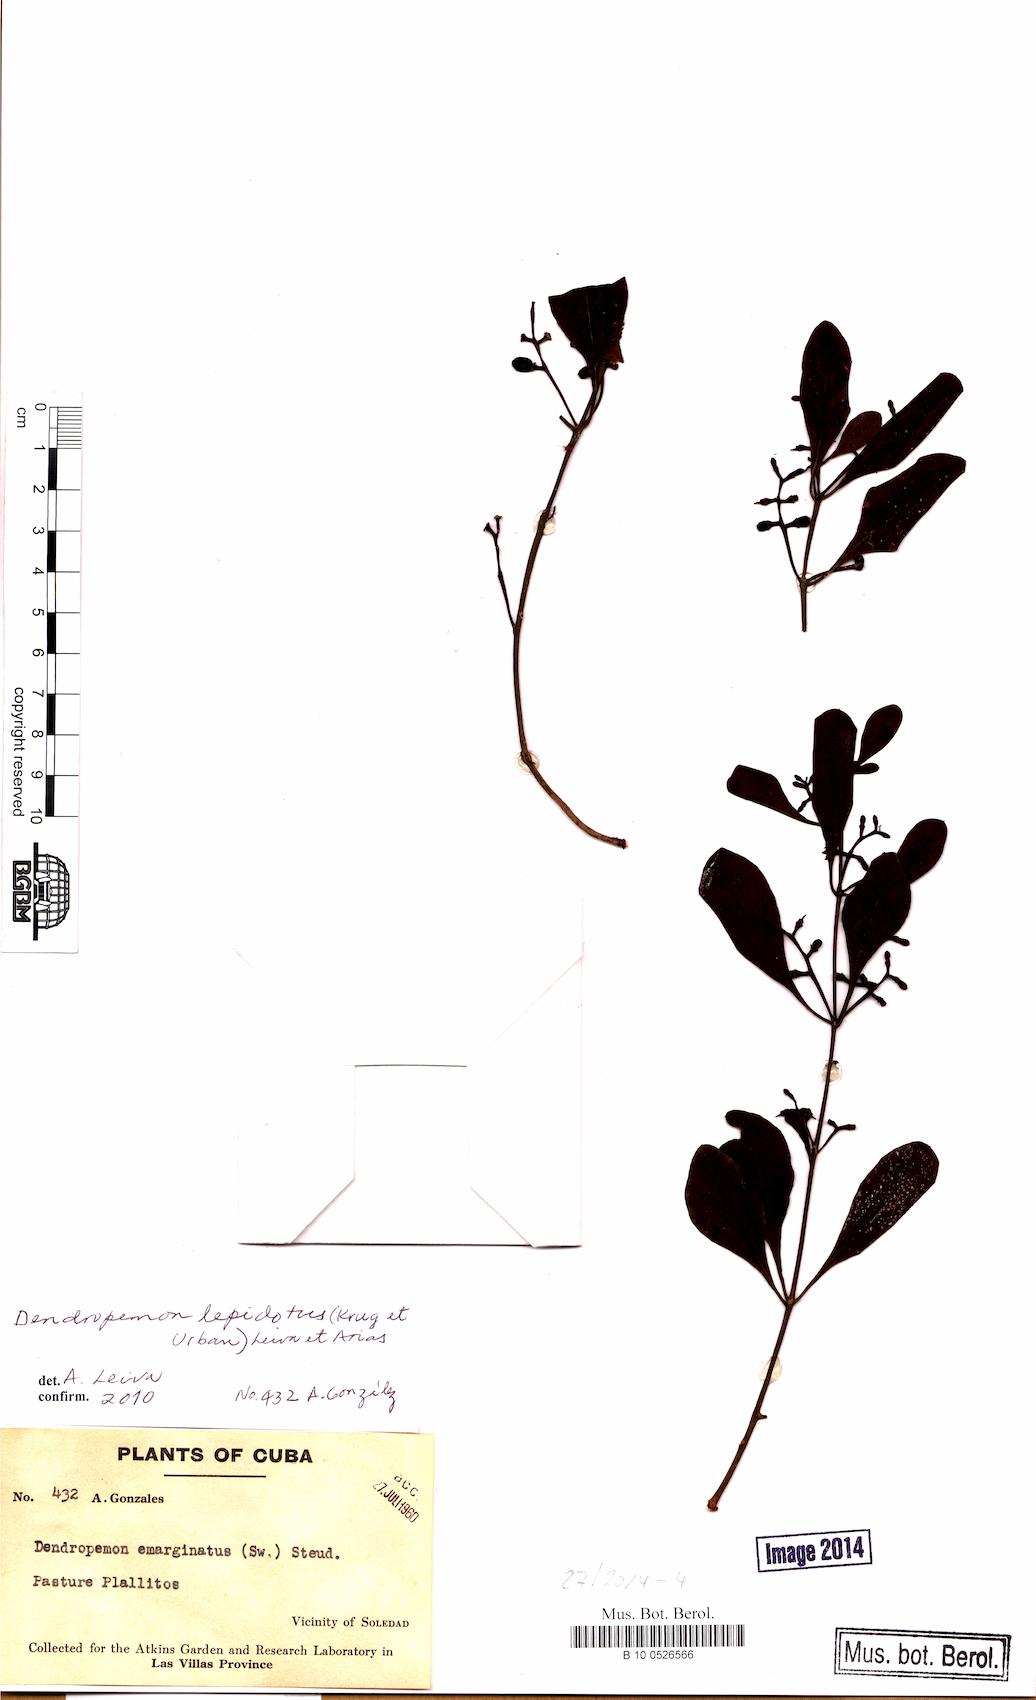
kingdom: Plantae
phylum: Tracheophyta
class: Magnoliopsida
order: Santalales
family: Loranthaceae
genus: Dendropemon
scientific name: Dendropemon lepidotus
